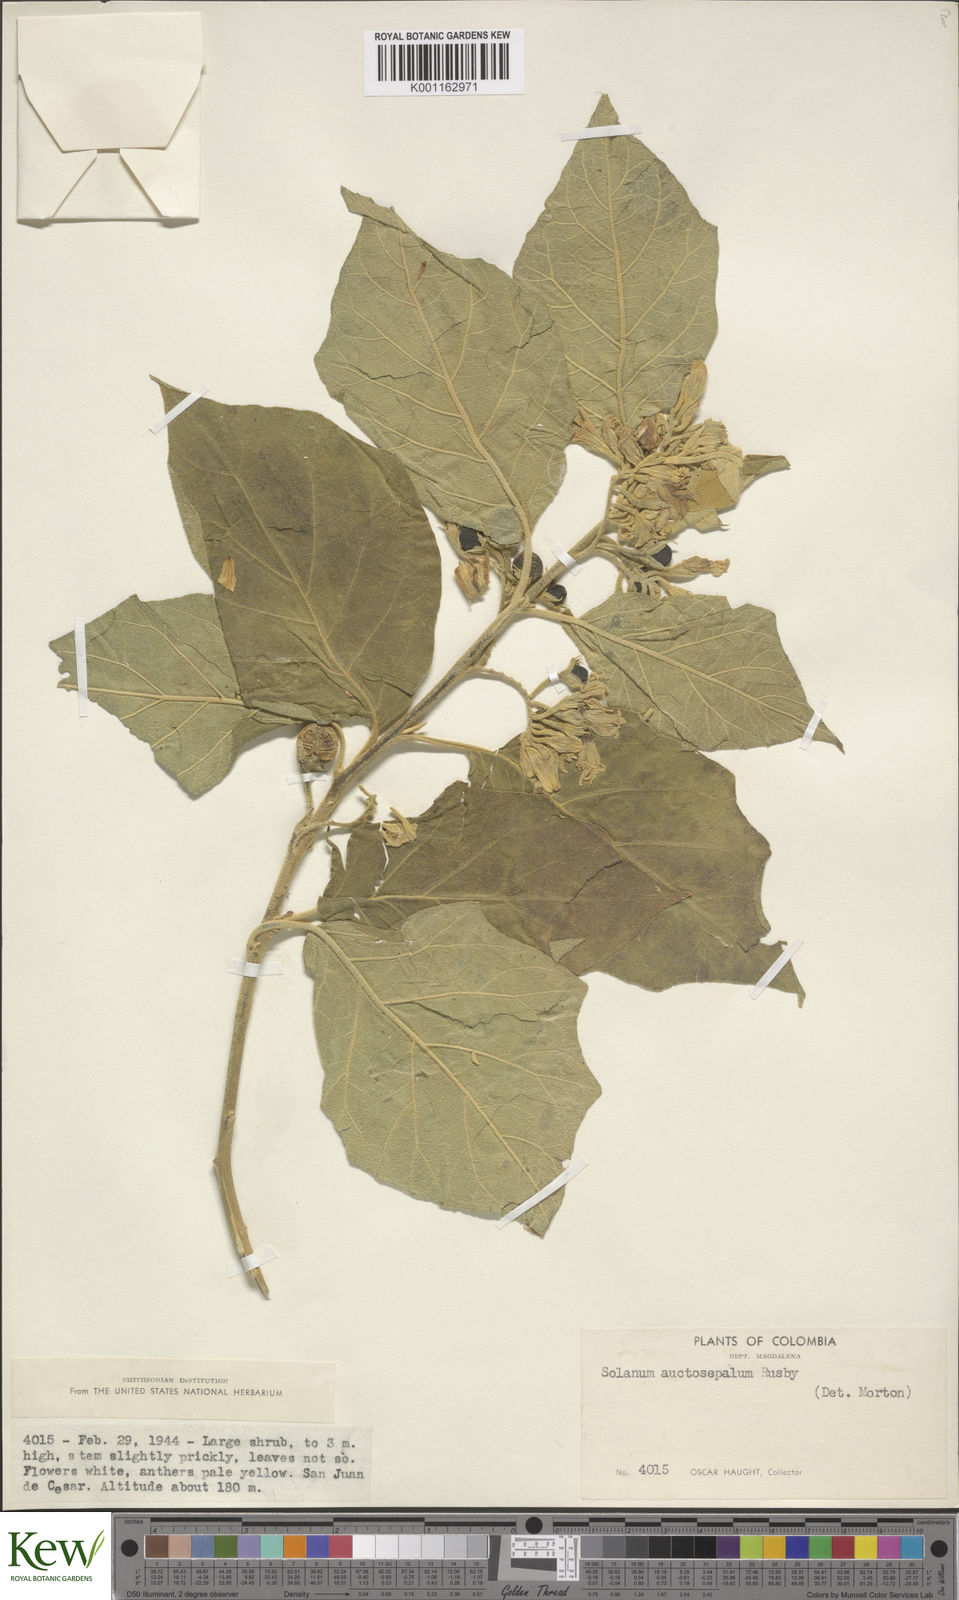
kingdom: Plantae
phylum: Tracheophyta
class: Magnoliopsida
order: Solanales
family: Solanaceae
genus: Solanum
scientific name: Solanum stellatiglandulosum
